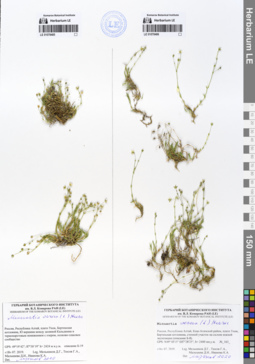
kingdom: Plantae
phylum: Tracheophyta
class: Magnoliopsida
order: Caryophyllales
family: Caryophyllaceae
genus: Sabulina
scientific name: Sabulina verna
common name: Spring sandwort
